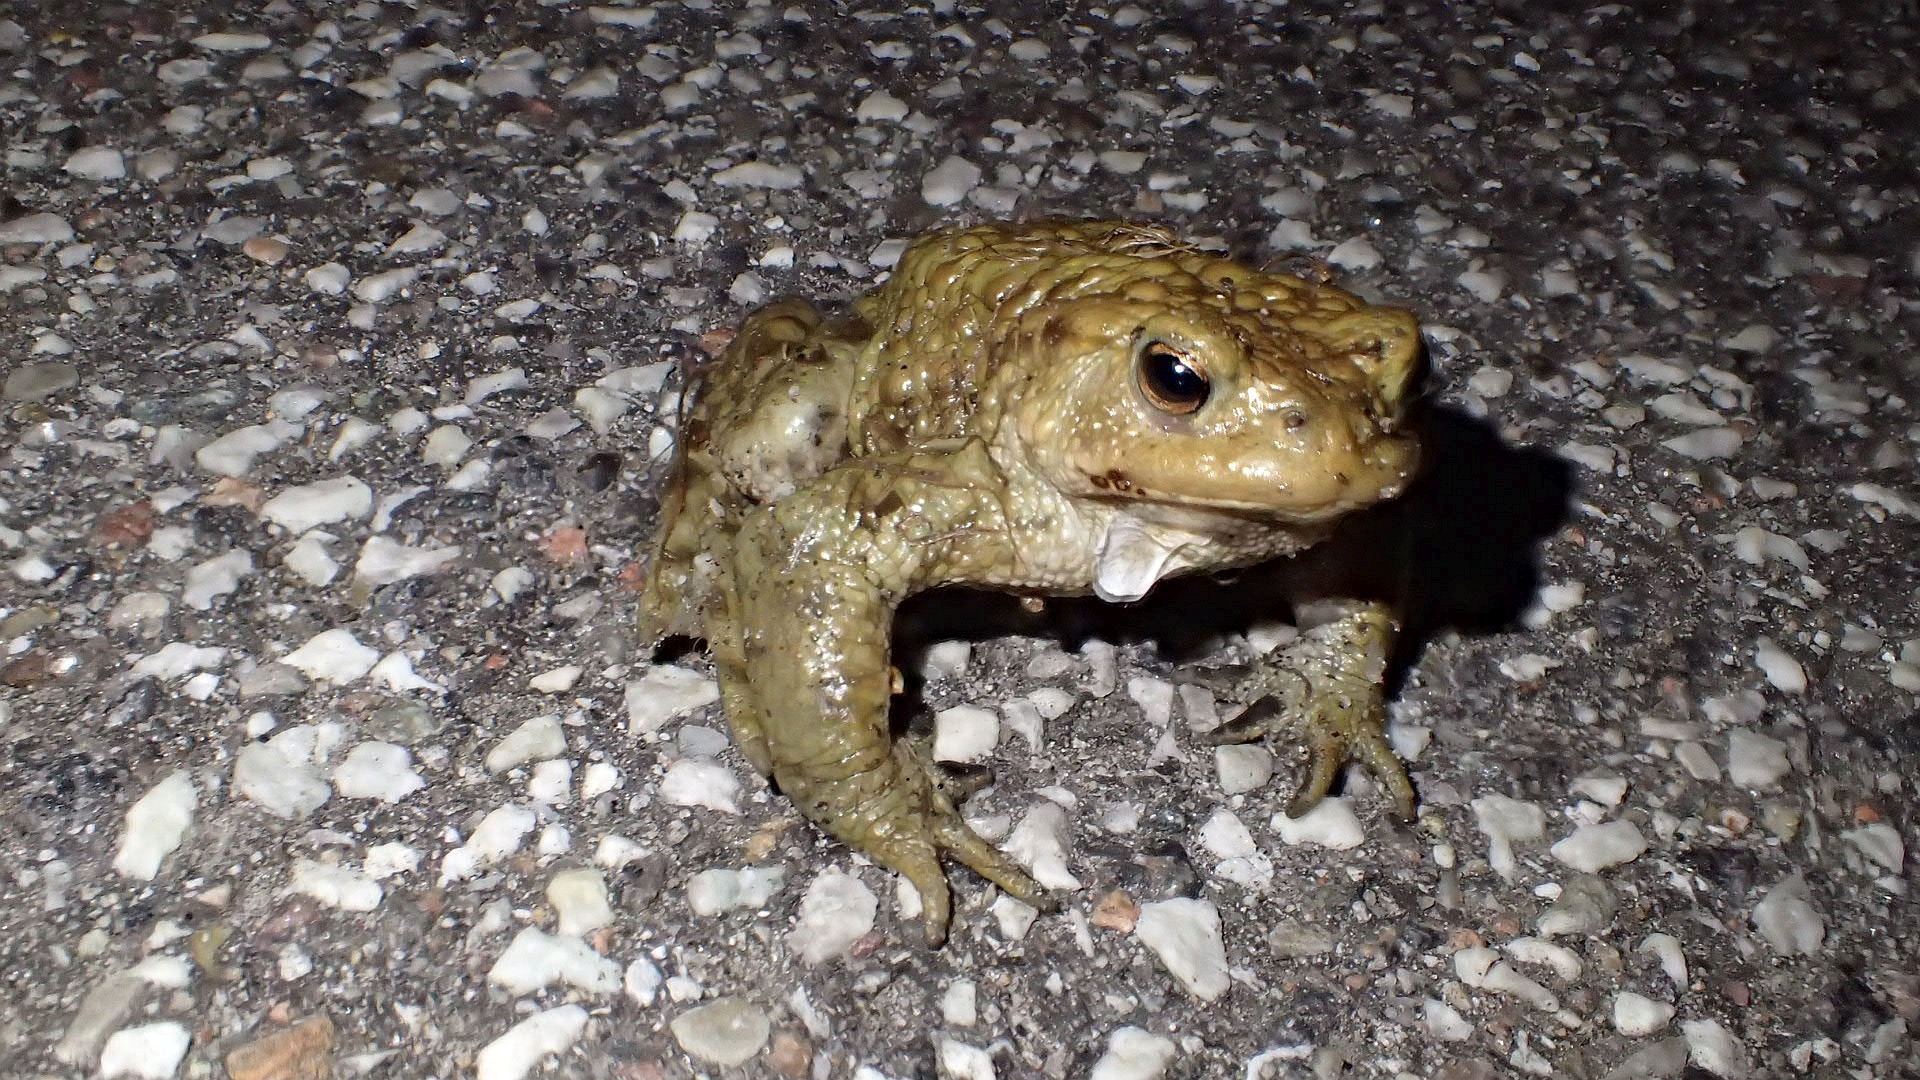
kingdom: Animalia
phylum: Chordata
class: Amphibia
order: Anura
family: Bufonidae
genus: Bufo
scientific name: Bufo bufo
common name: Skrubtudse
